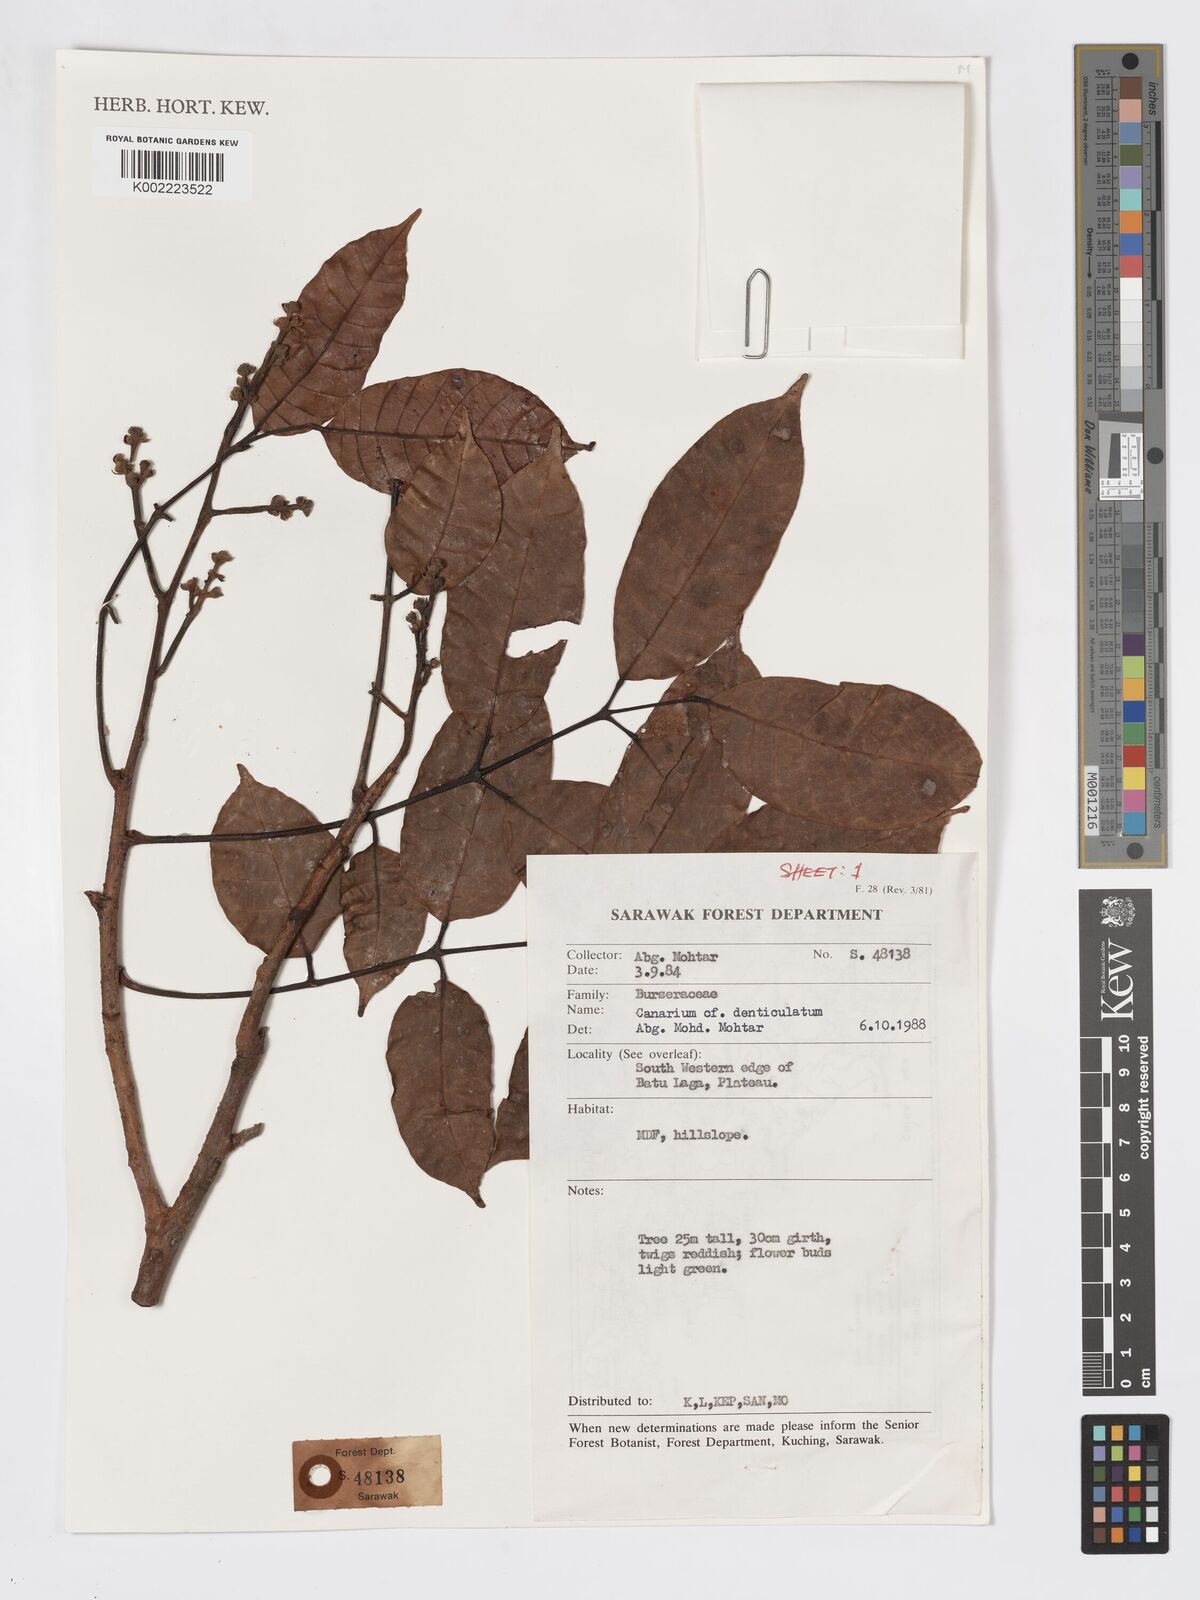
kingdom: Plantae
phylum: Tracheophyta
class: Magnoliopsida
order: Sapindales
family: Burseraceae
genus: Canarium
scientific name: Canarium denticulatum
